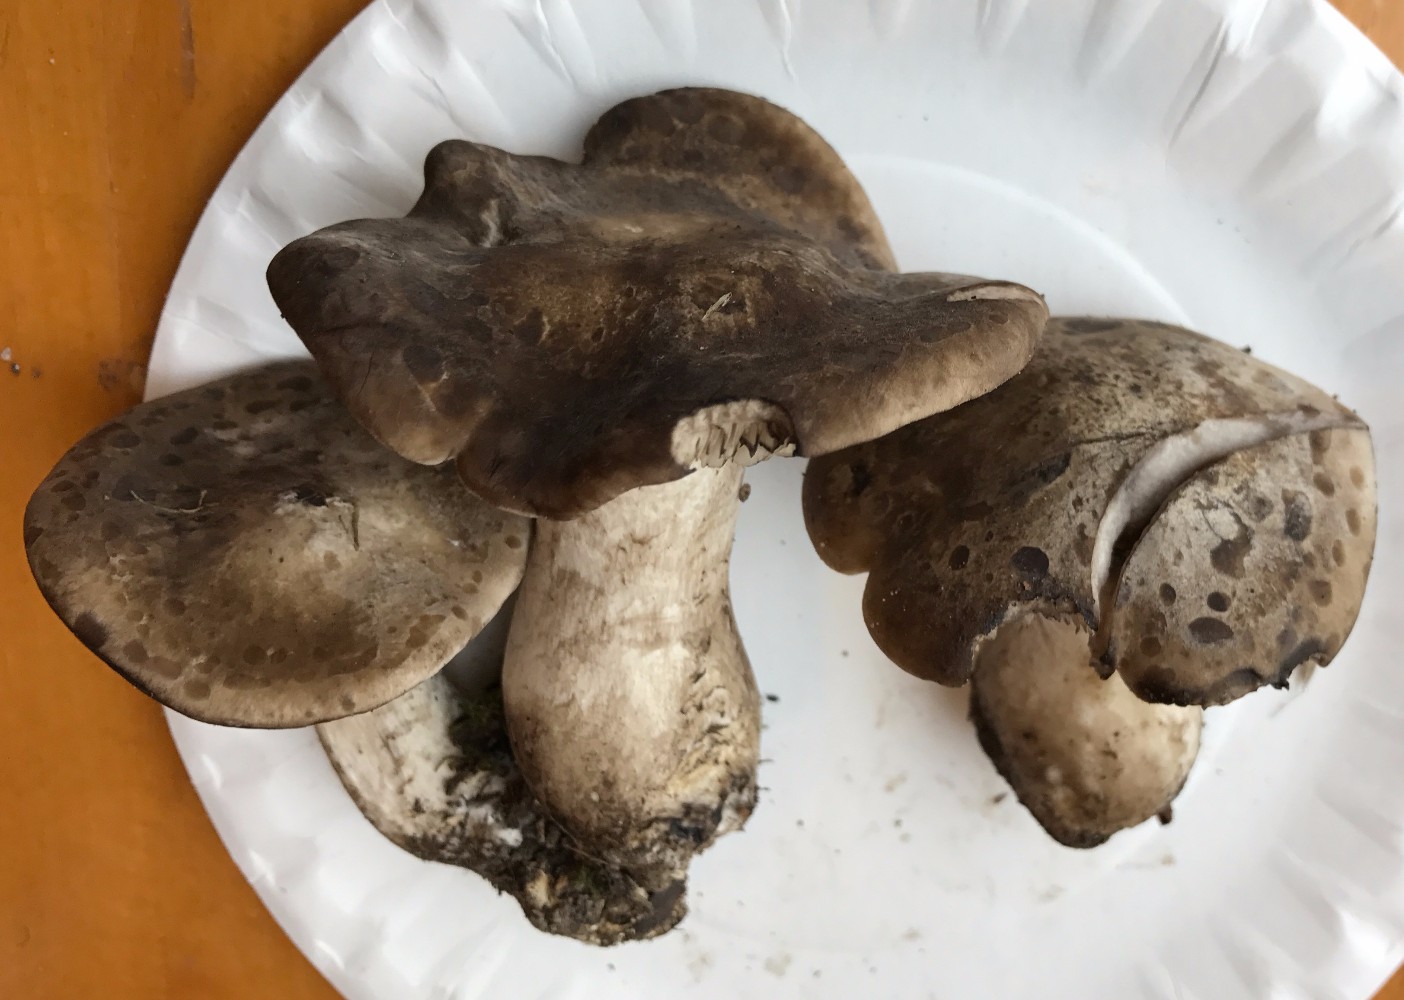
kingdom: Fungi
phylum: Basidiomycota
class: Agaricomycetes
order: Agaricales
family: Lyophyllaceae
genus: Lyophyllum
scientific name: Lyophyllum eustygium
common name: tykbladet gråblad
